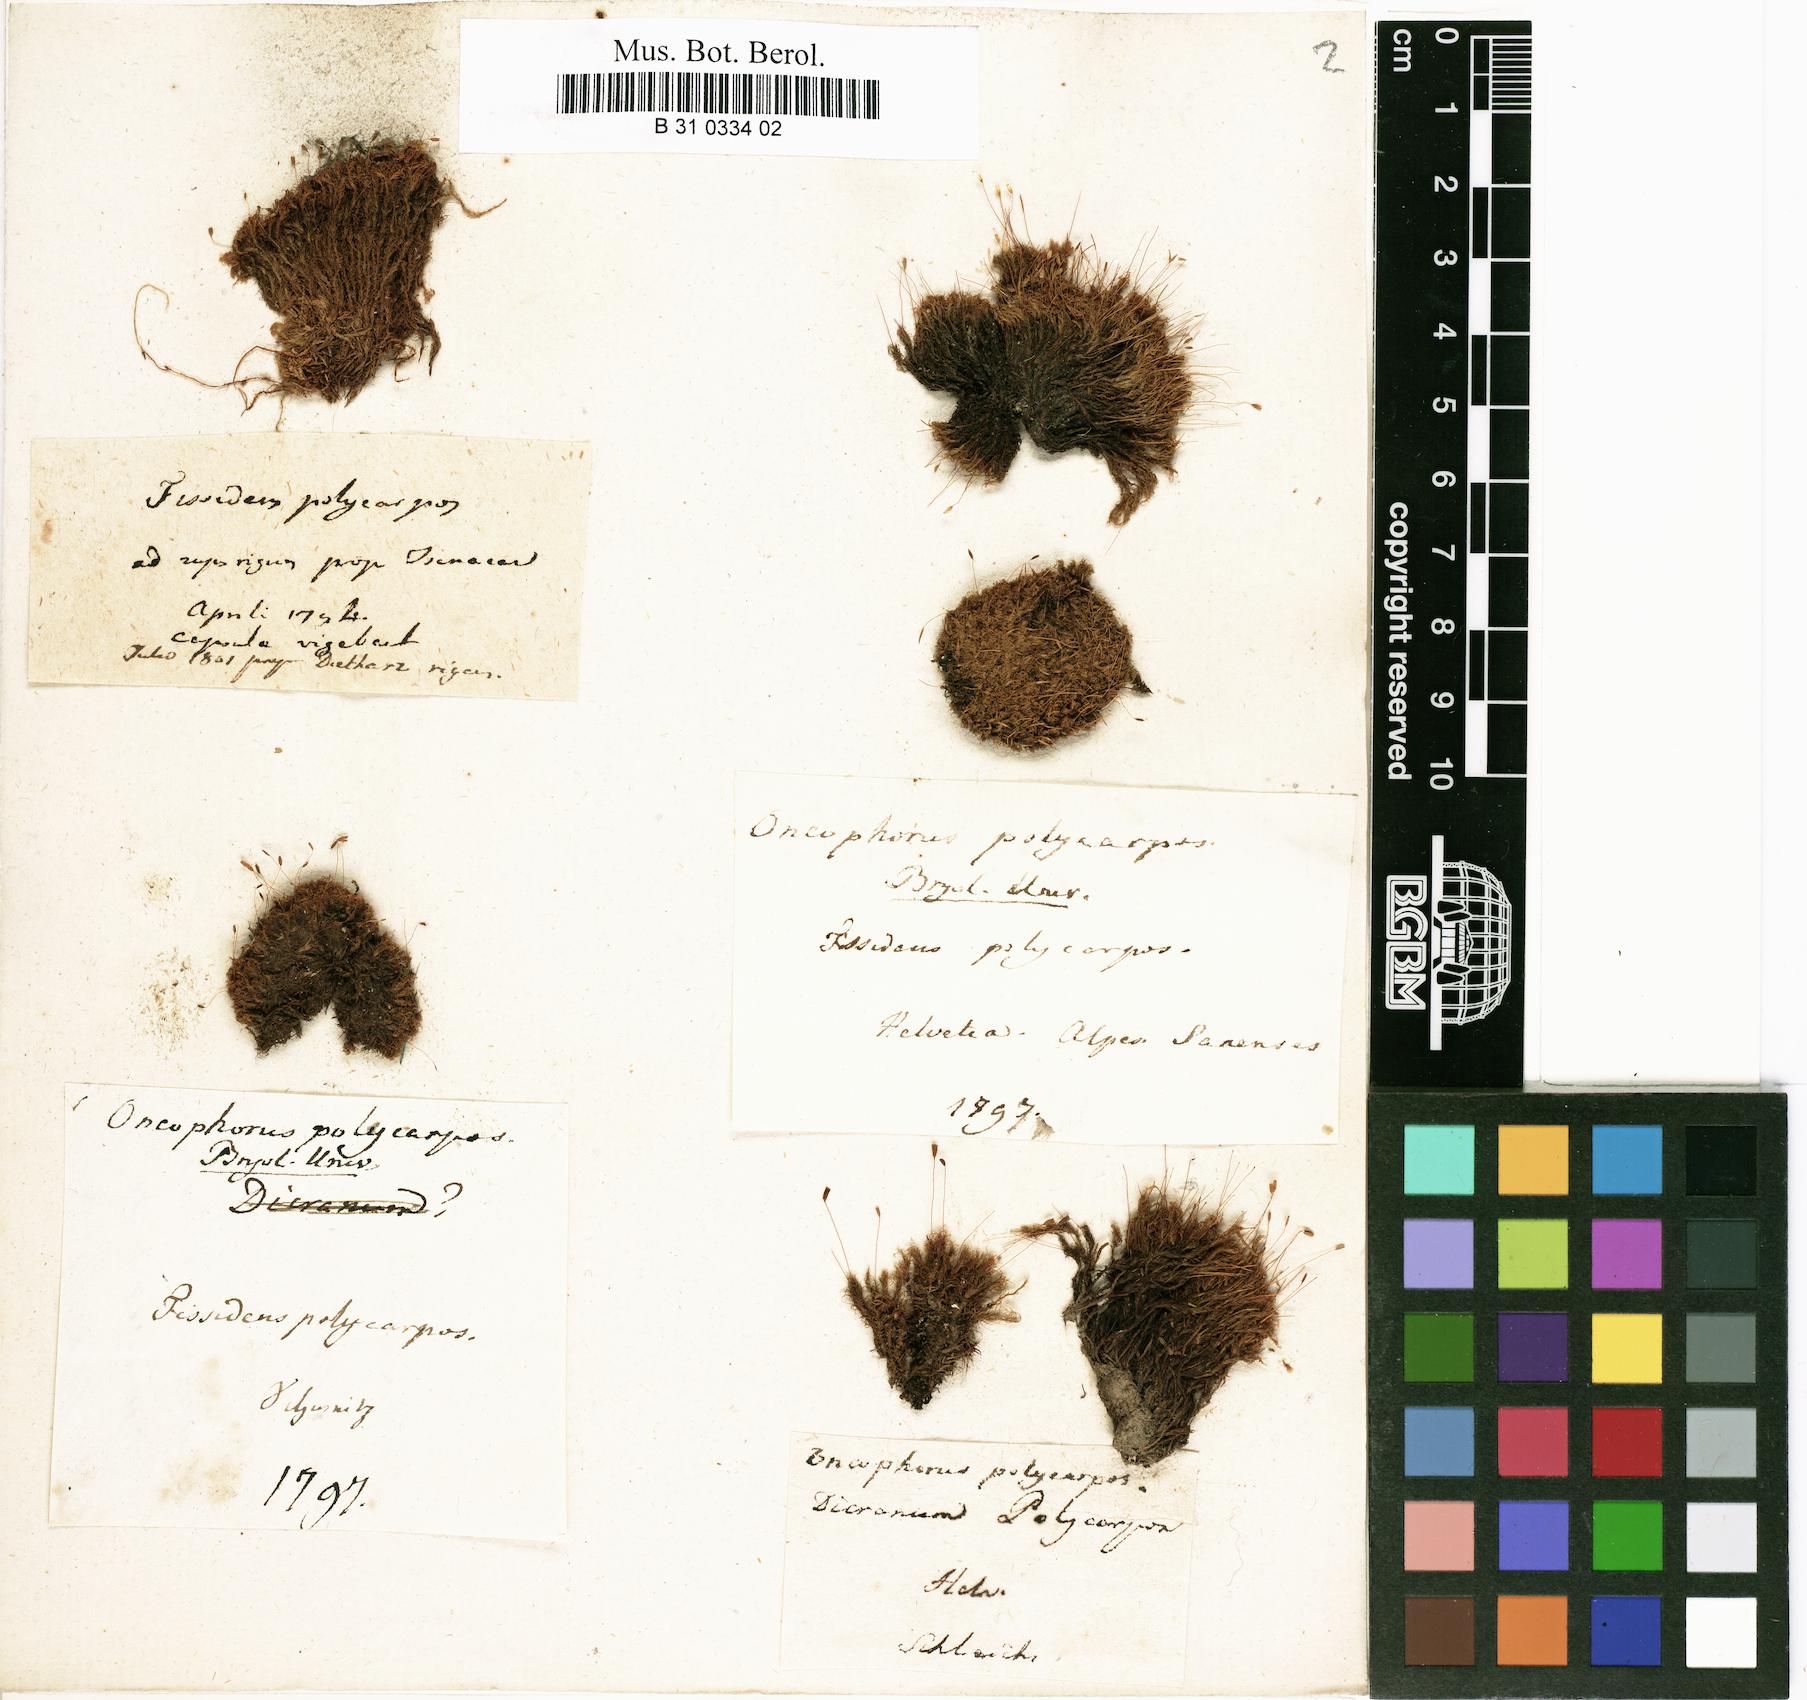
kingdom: Plantae
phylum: Bryophyta
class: Bryopsida
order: Dicranales
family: Rhabdoweisiaceae
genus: Cynodontium
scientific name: Cynodontium polycarpon
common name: Many-fruited dogtooth moss
